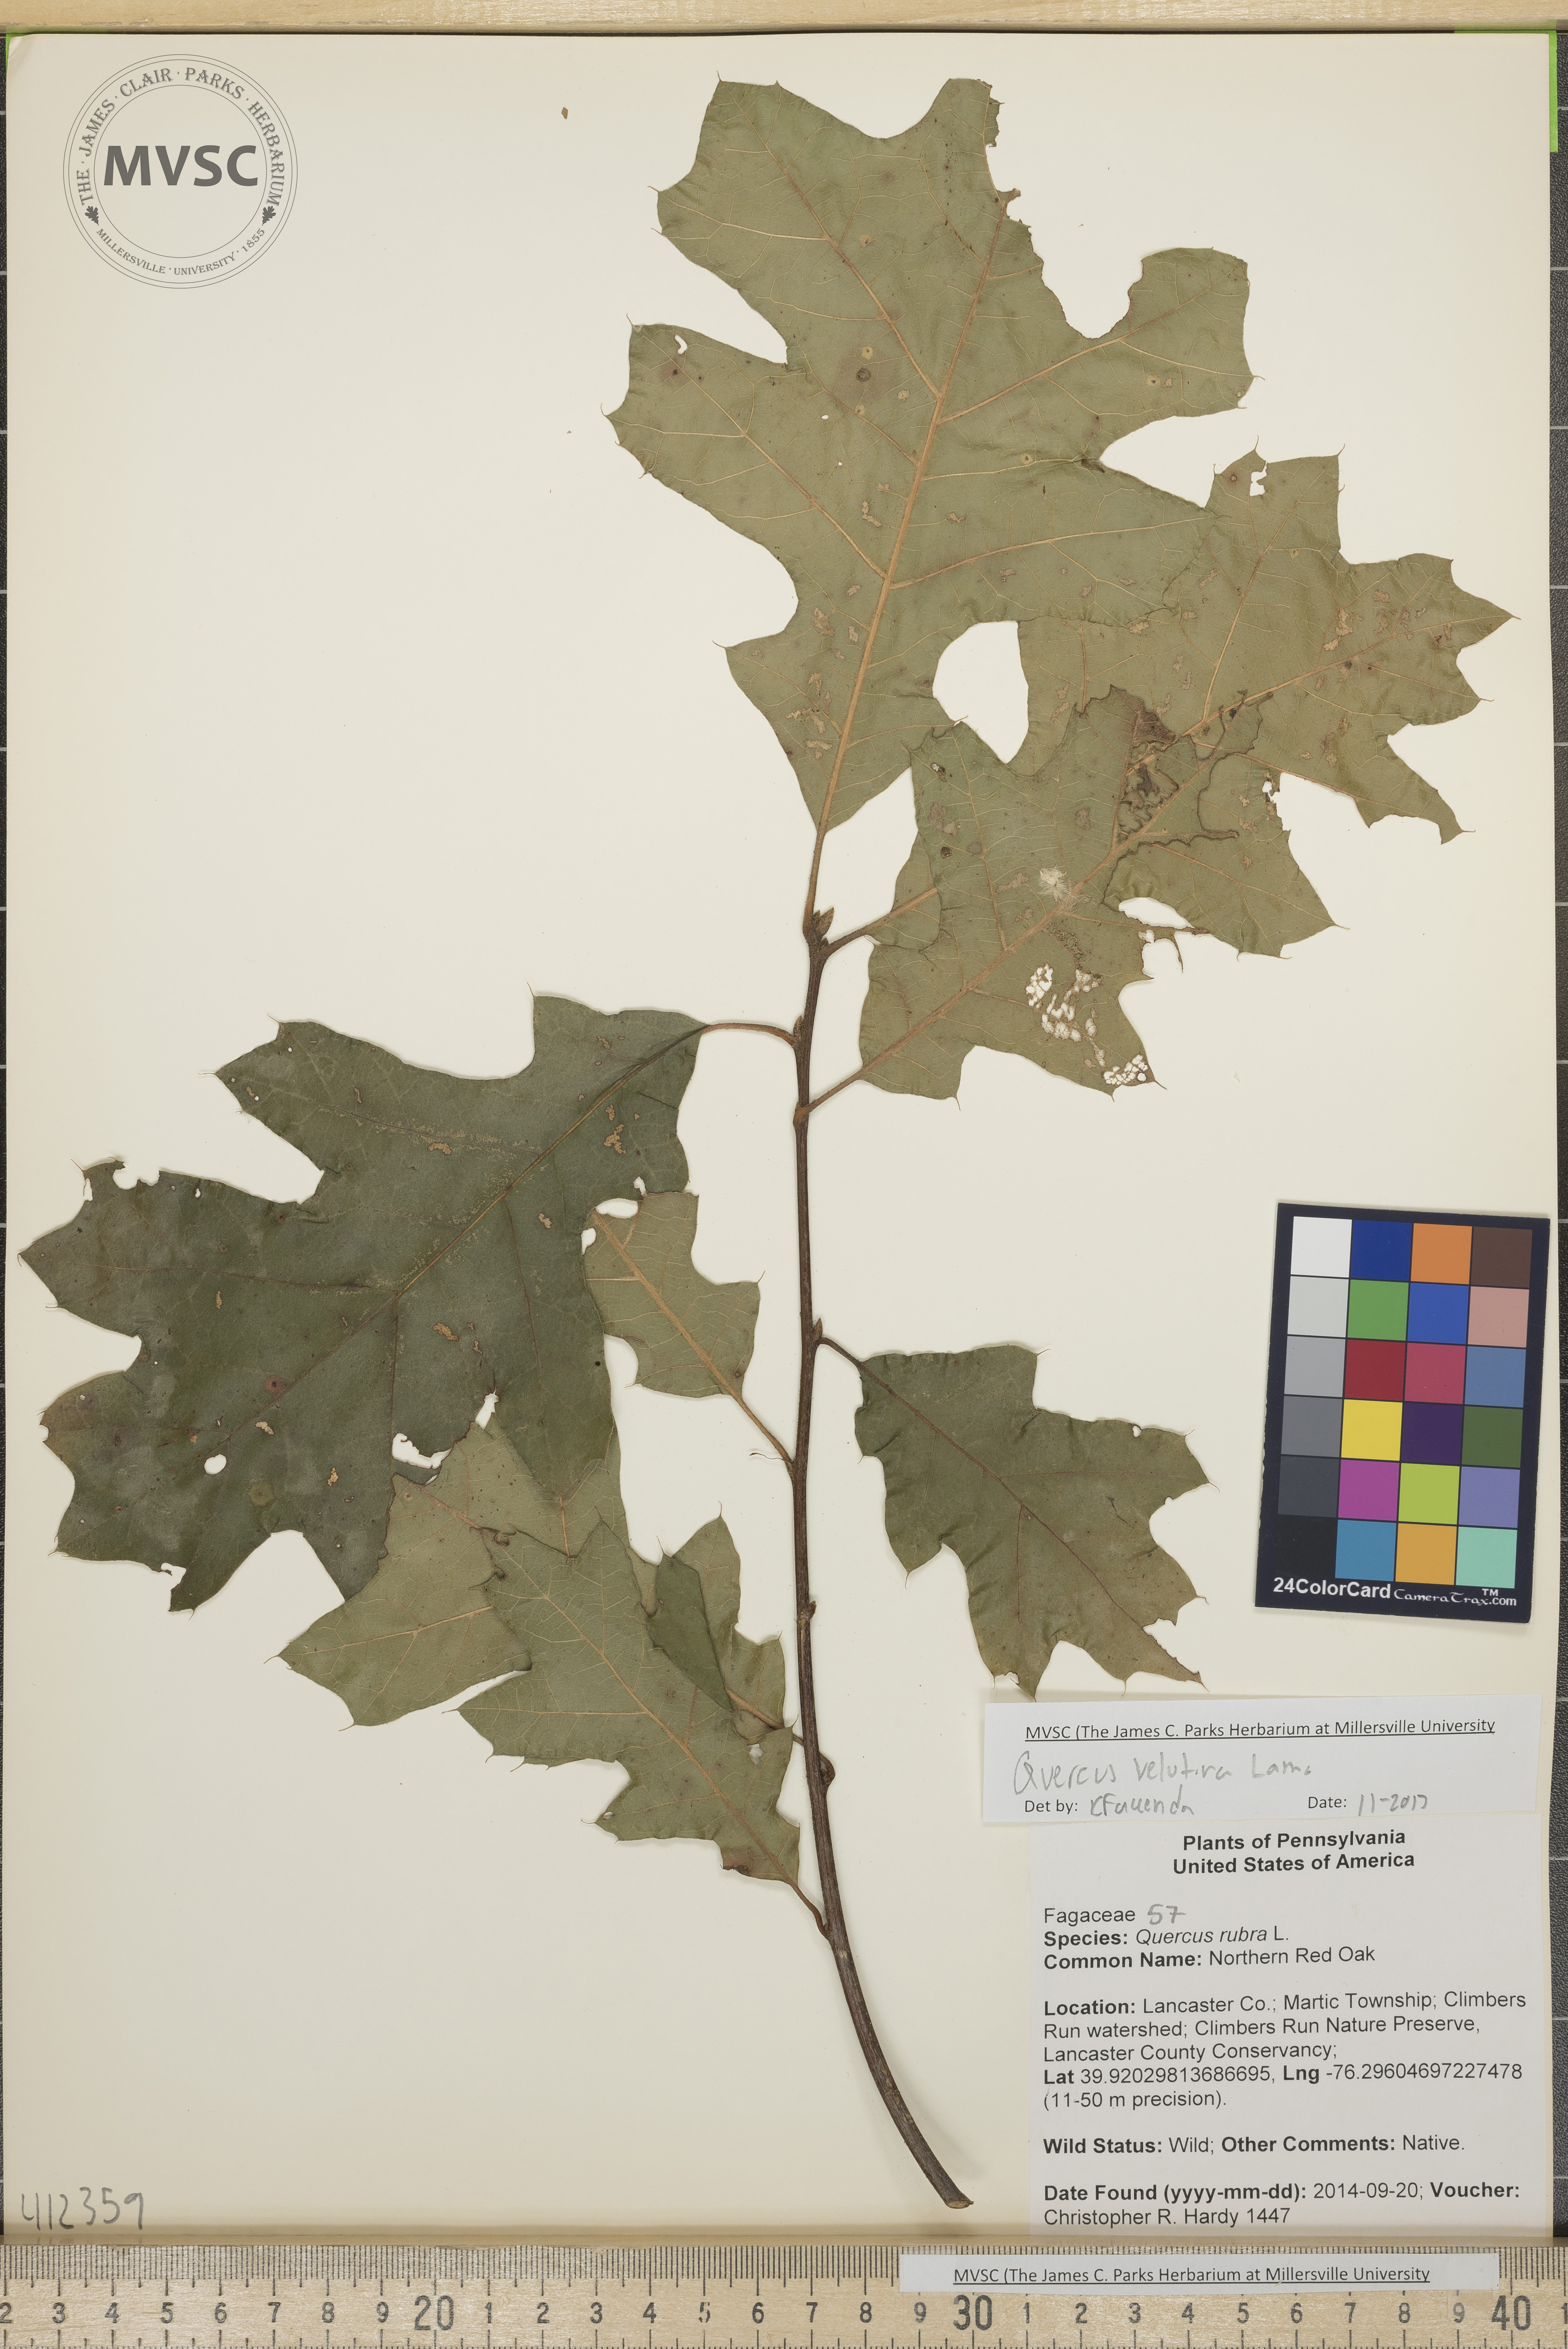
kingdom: Plantae
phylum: Tracheophyta
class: Magnoliopsida
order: Fagales
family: Fagaceae
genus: Quercus
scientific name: Quercus velutina
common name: black oak
